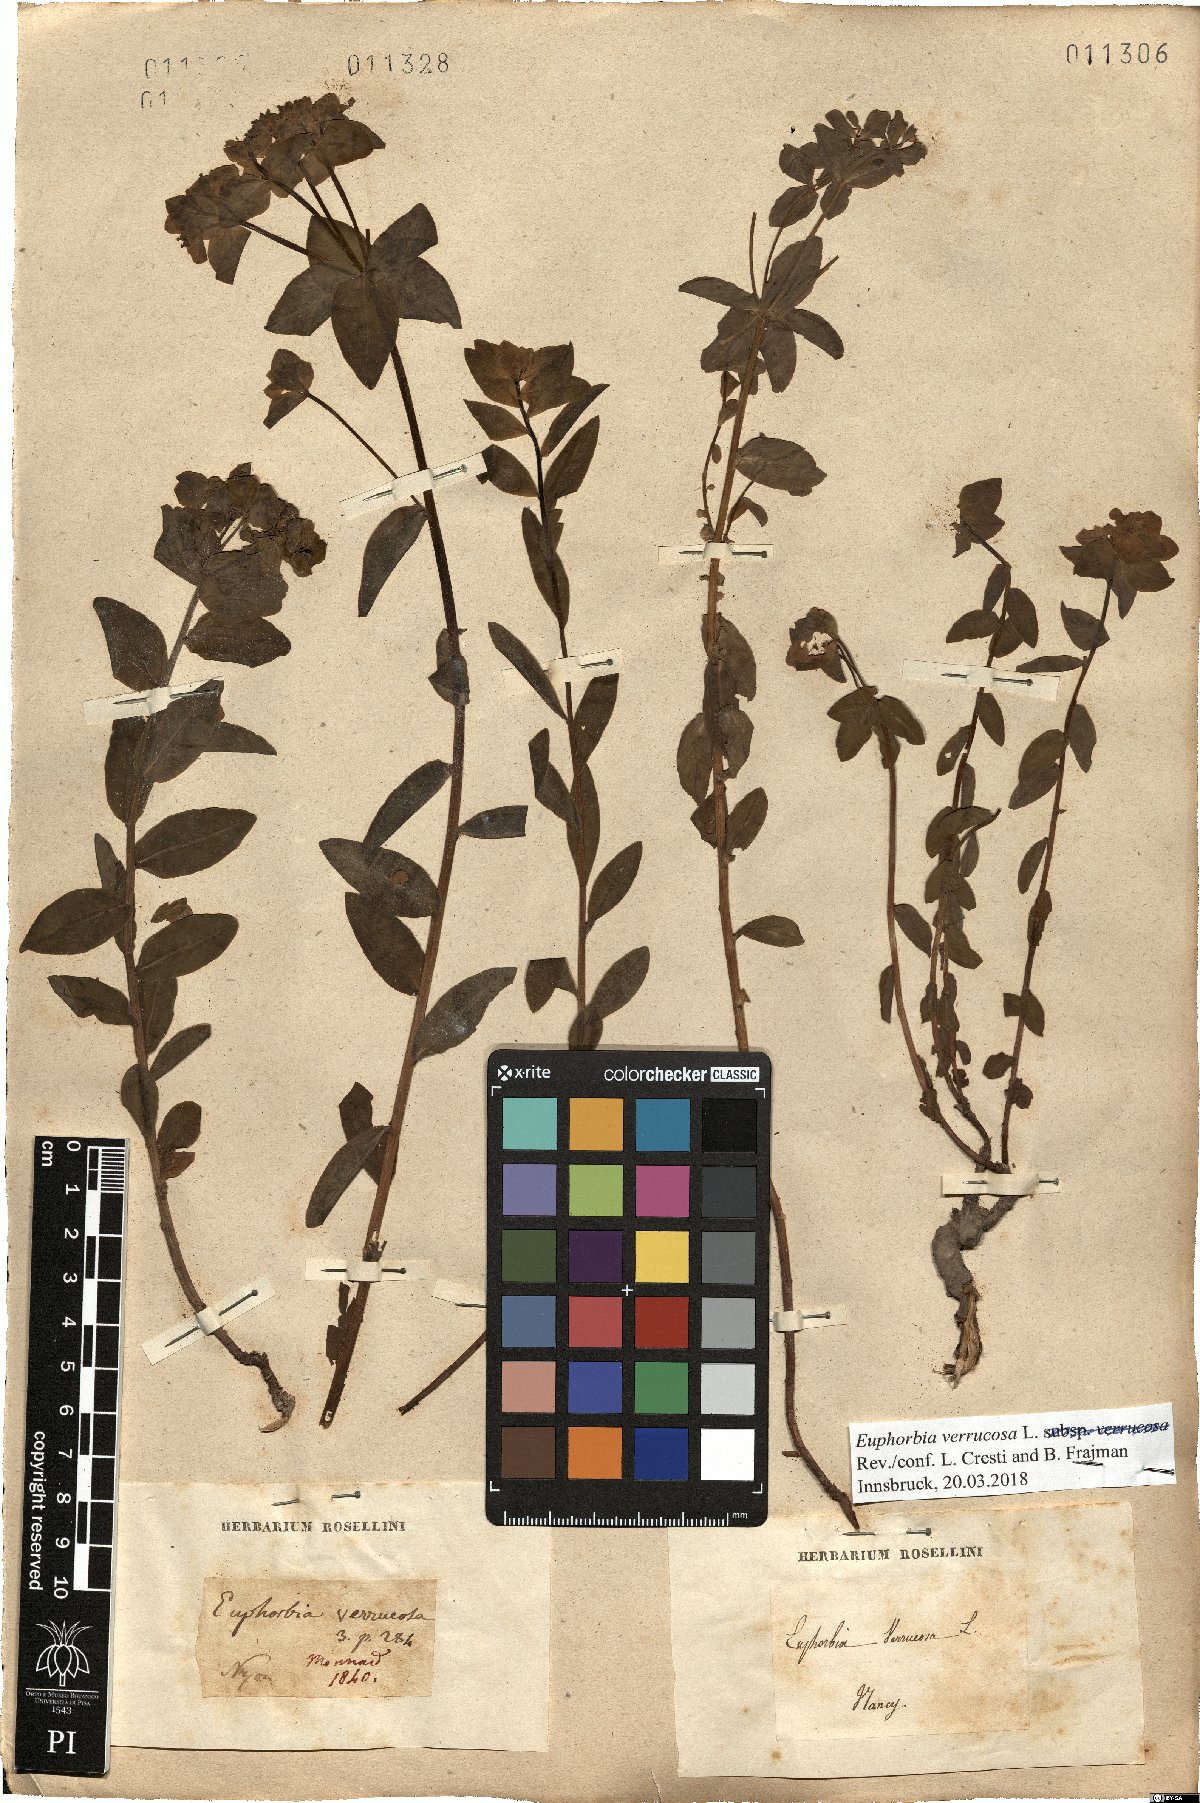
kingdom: Plantae
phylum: Tracheophyta
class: Magnoliopsida
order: Malpighiales
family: Euphorbiaceae
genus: Euphorbia
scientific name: Euphorbia verrucosa
